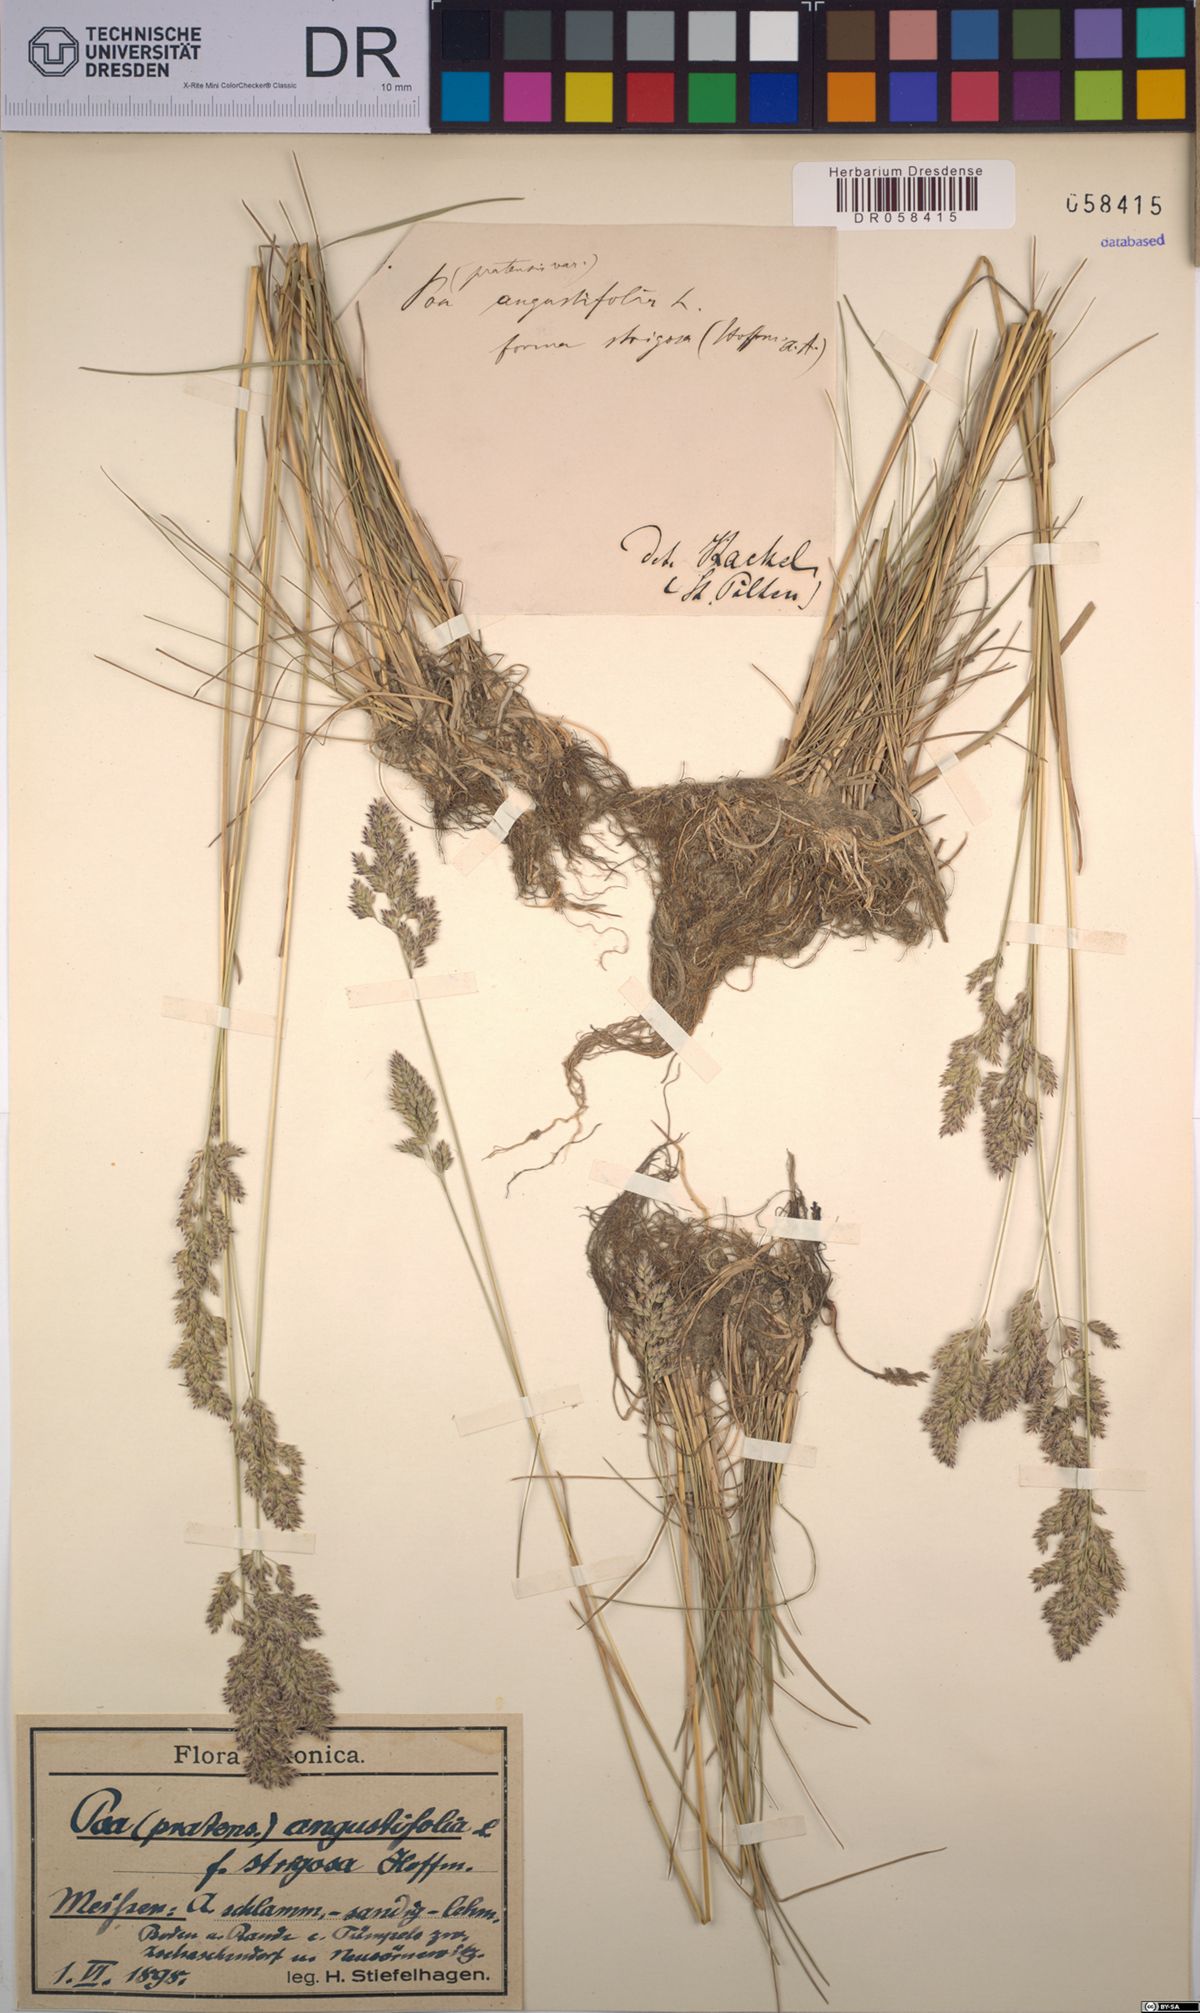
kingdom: Plantae
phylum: Tracheophyta
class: Liliopsida
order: Poales
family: Poaceae
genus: Poa
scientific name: Poa angustifolia
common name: Narrow-leaved meadow-grass
